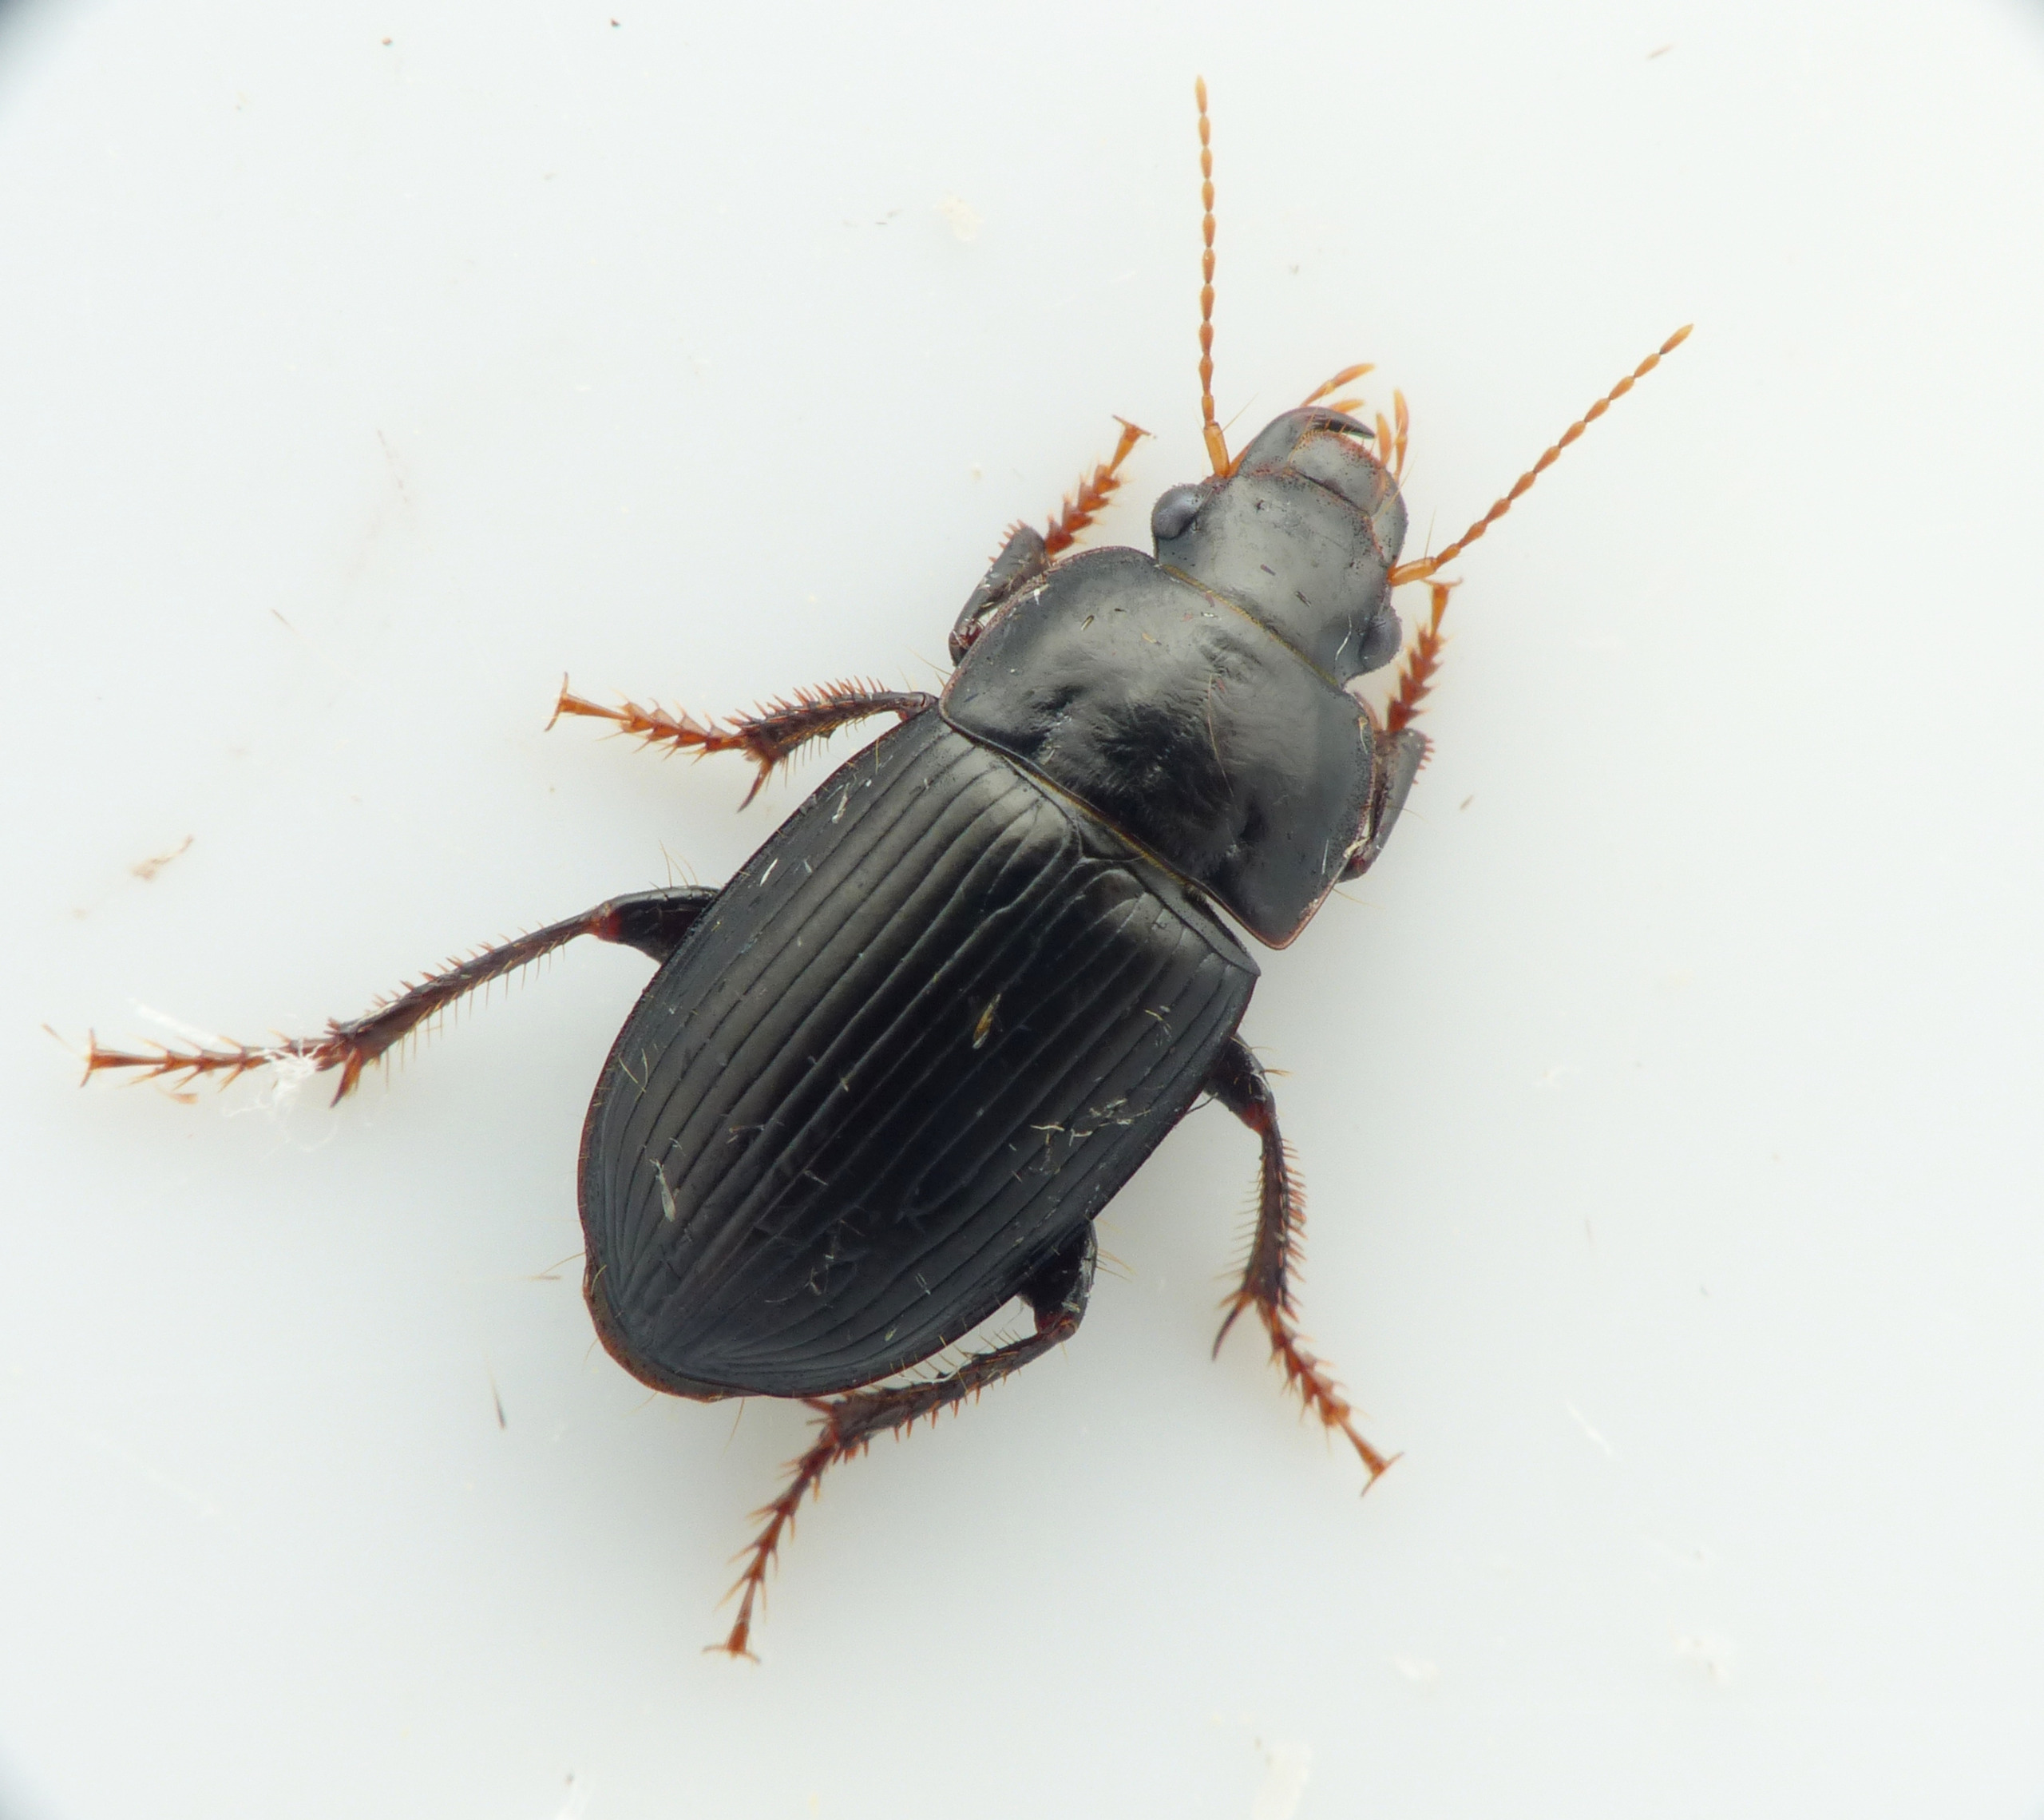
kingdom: Animalia
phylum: Arthropoda
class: Insecta
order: Coleoptera
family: Carabidae
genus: Harpalus
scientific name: Harpalus froelichii
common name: Bred sandløber
